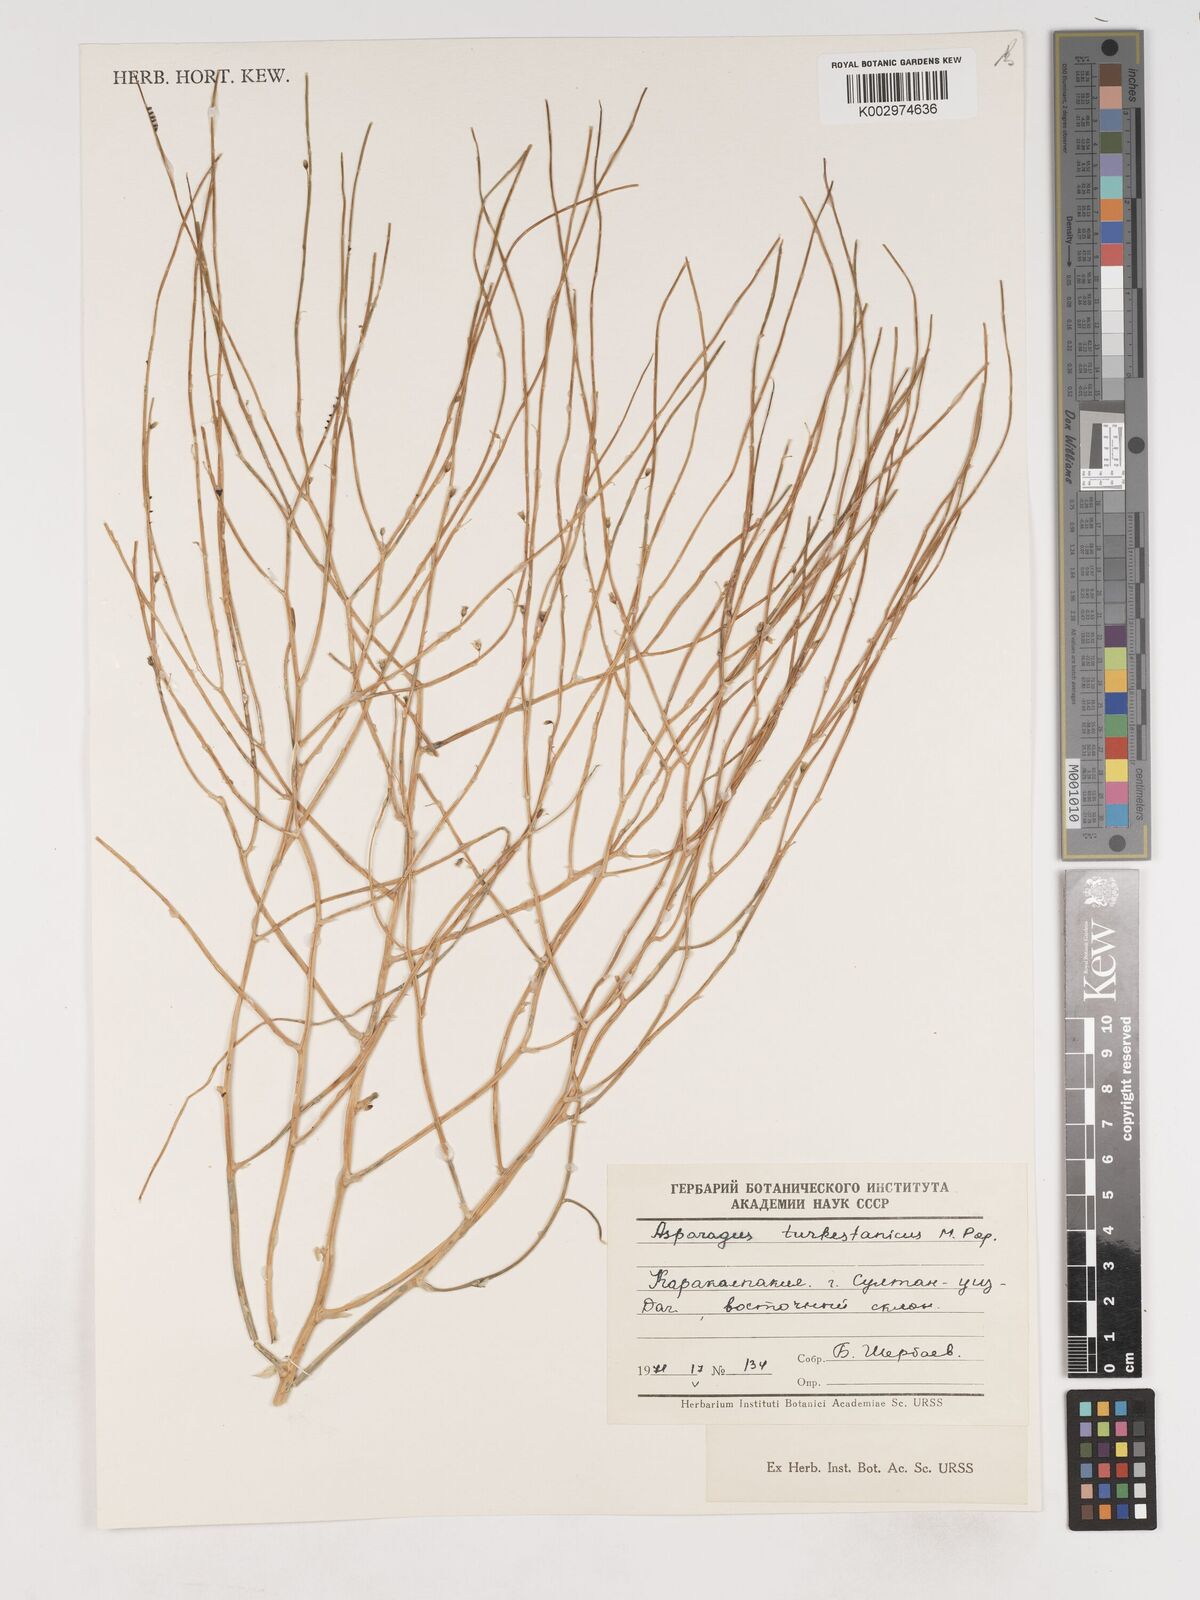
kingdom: Plantae
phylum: Tracheophyta
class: Liliopsida
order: Asparagales
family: Asparagaceae
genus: Asparagus
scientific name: Asparagus turkestanicus
